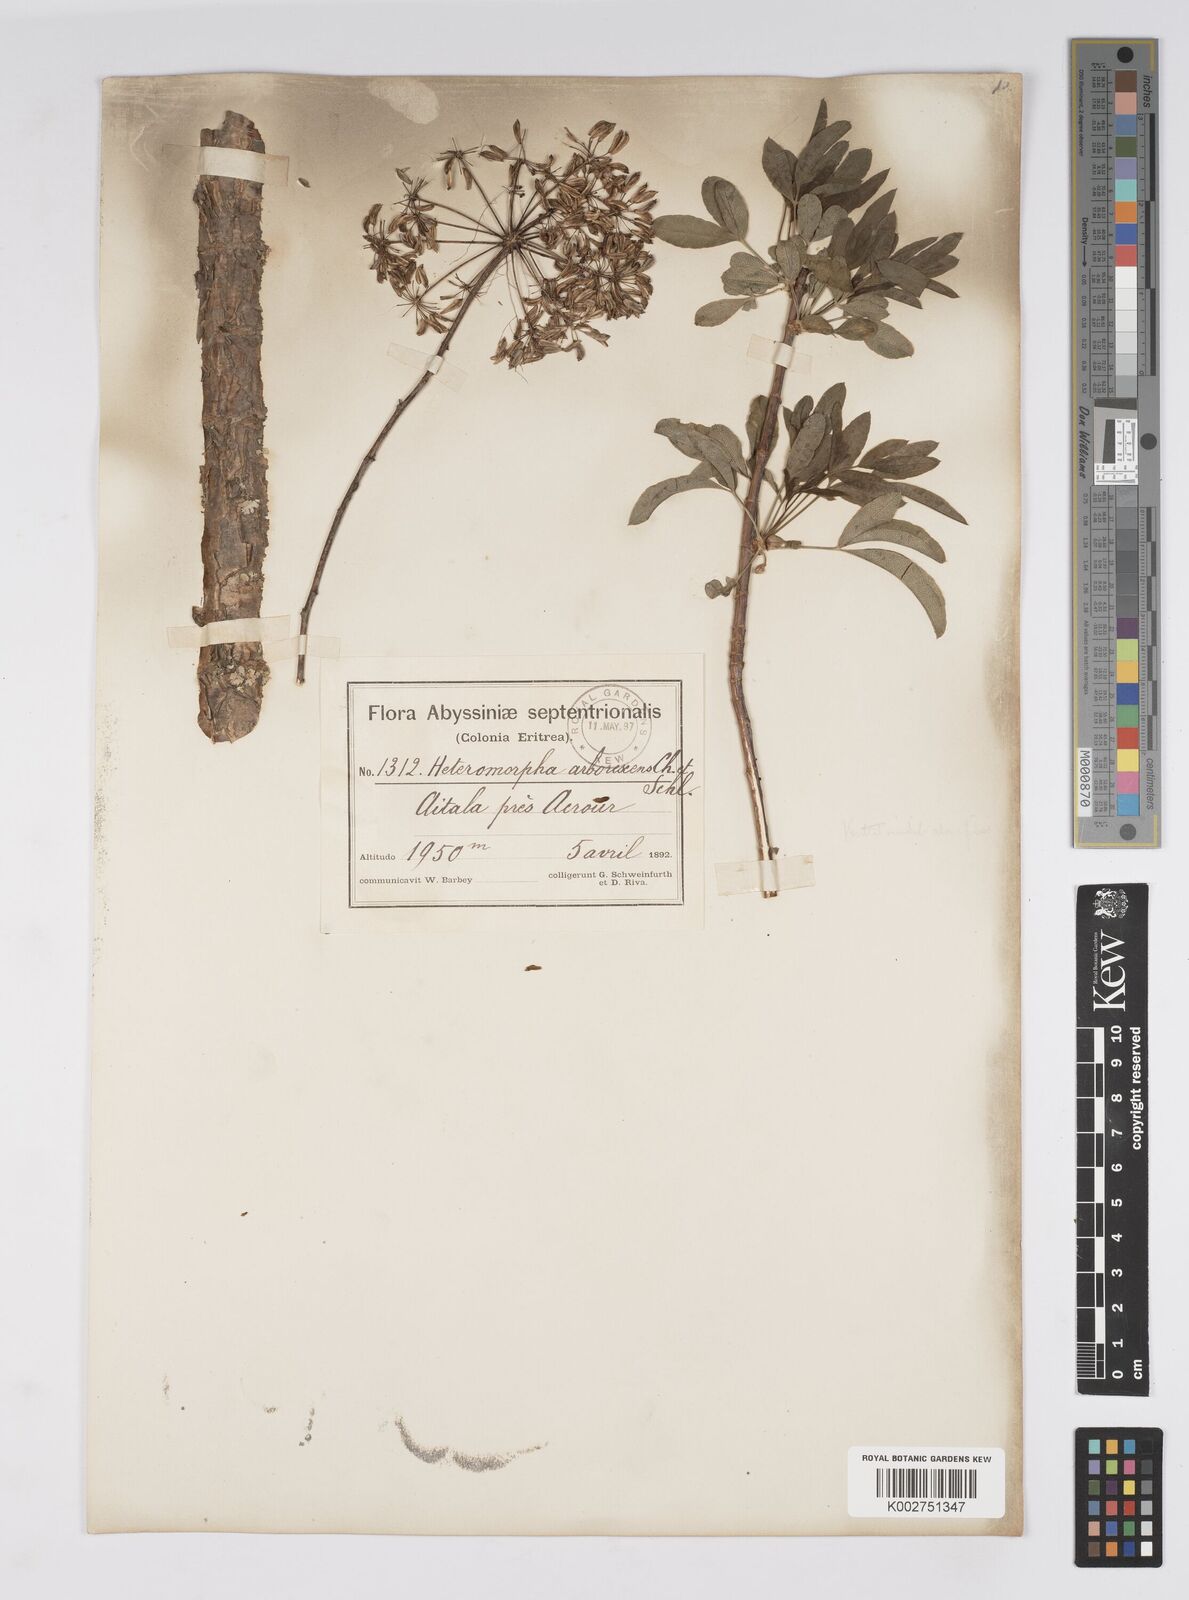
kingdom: Plantae
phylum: Tracheophyta
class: Magnoliopsida
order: Apiales
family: Apiaceae
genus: Heteromorpha
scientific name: Heteromorpha
